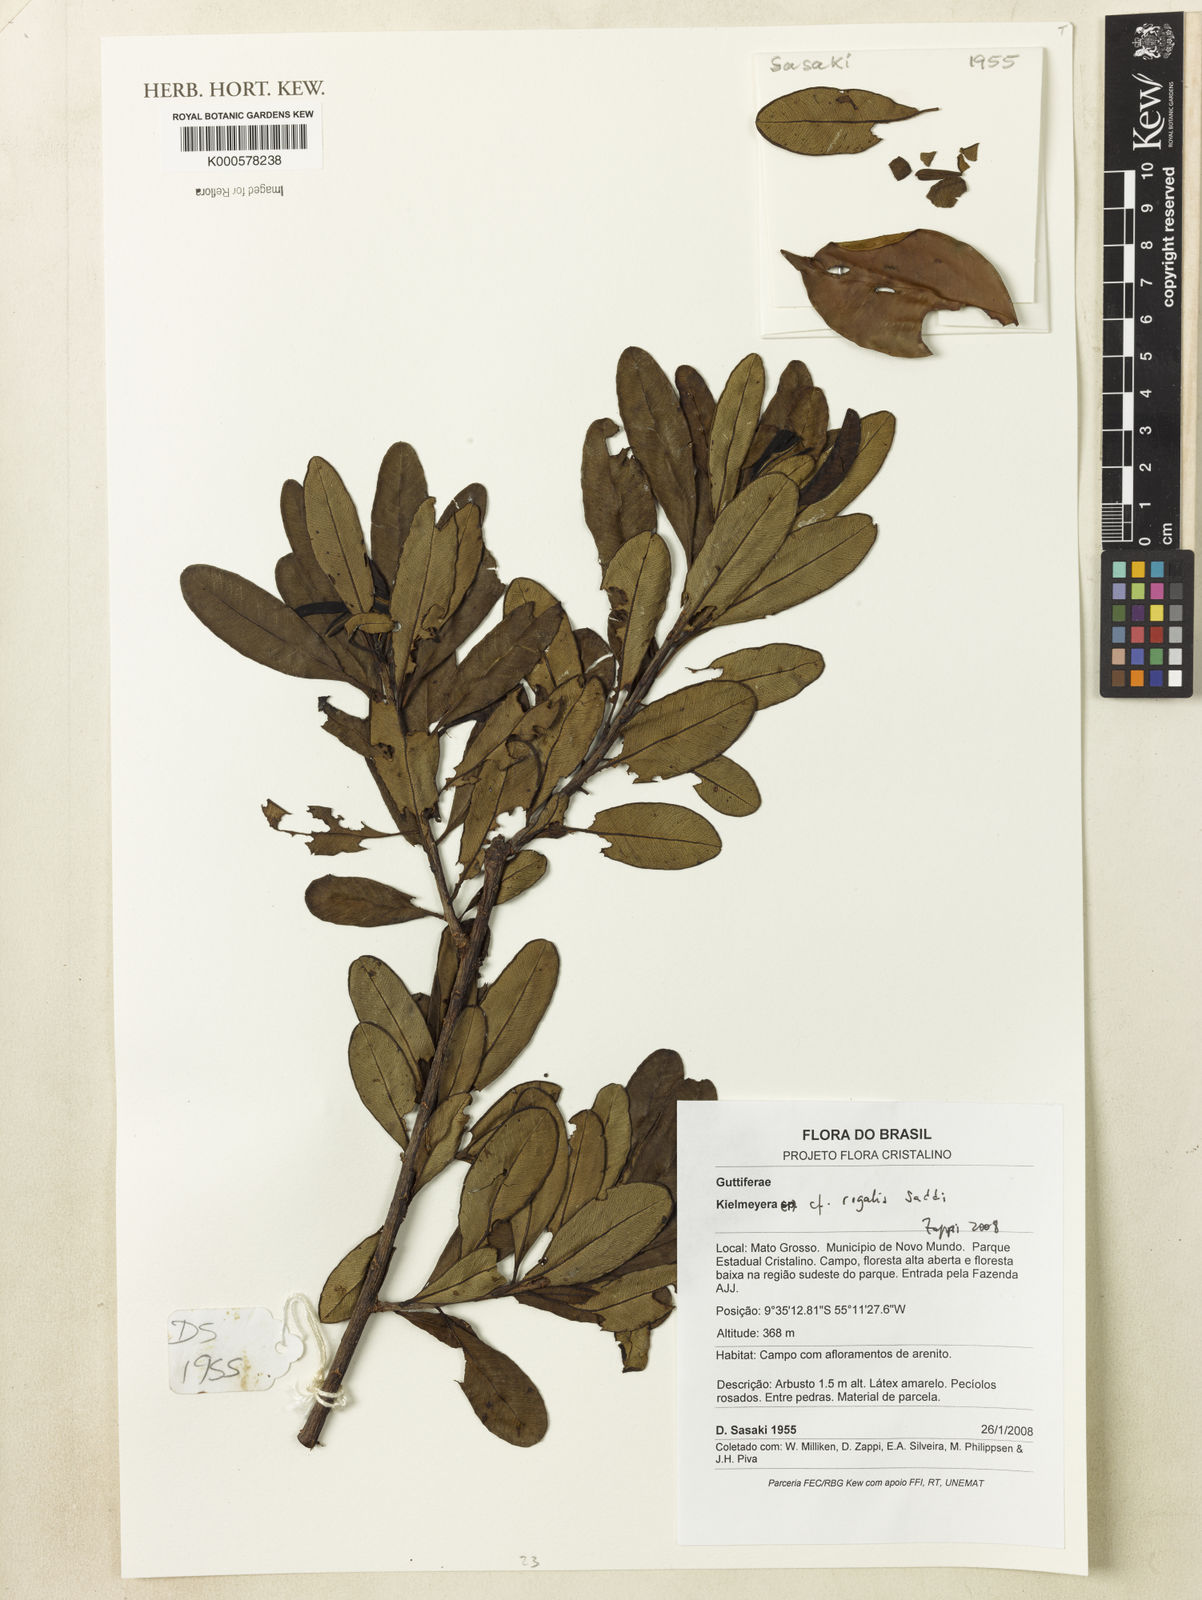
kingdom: Plantae
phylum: Tracheophyta
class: Magnoliopsida
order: Malpighiales
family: Calophyllaceae
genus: Kielmeyera
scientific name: Kielmeyera regalis
